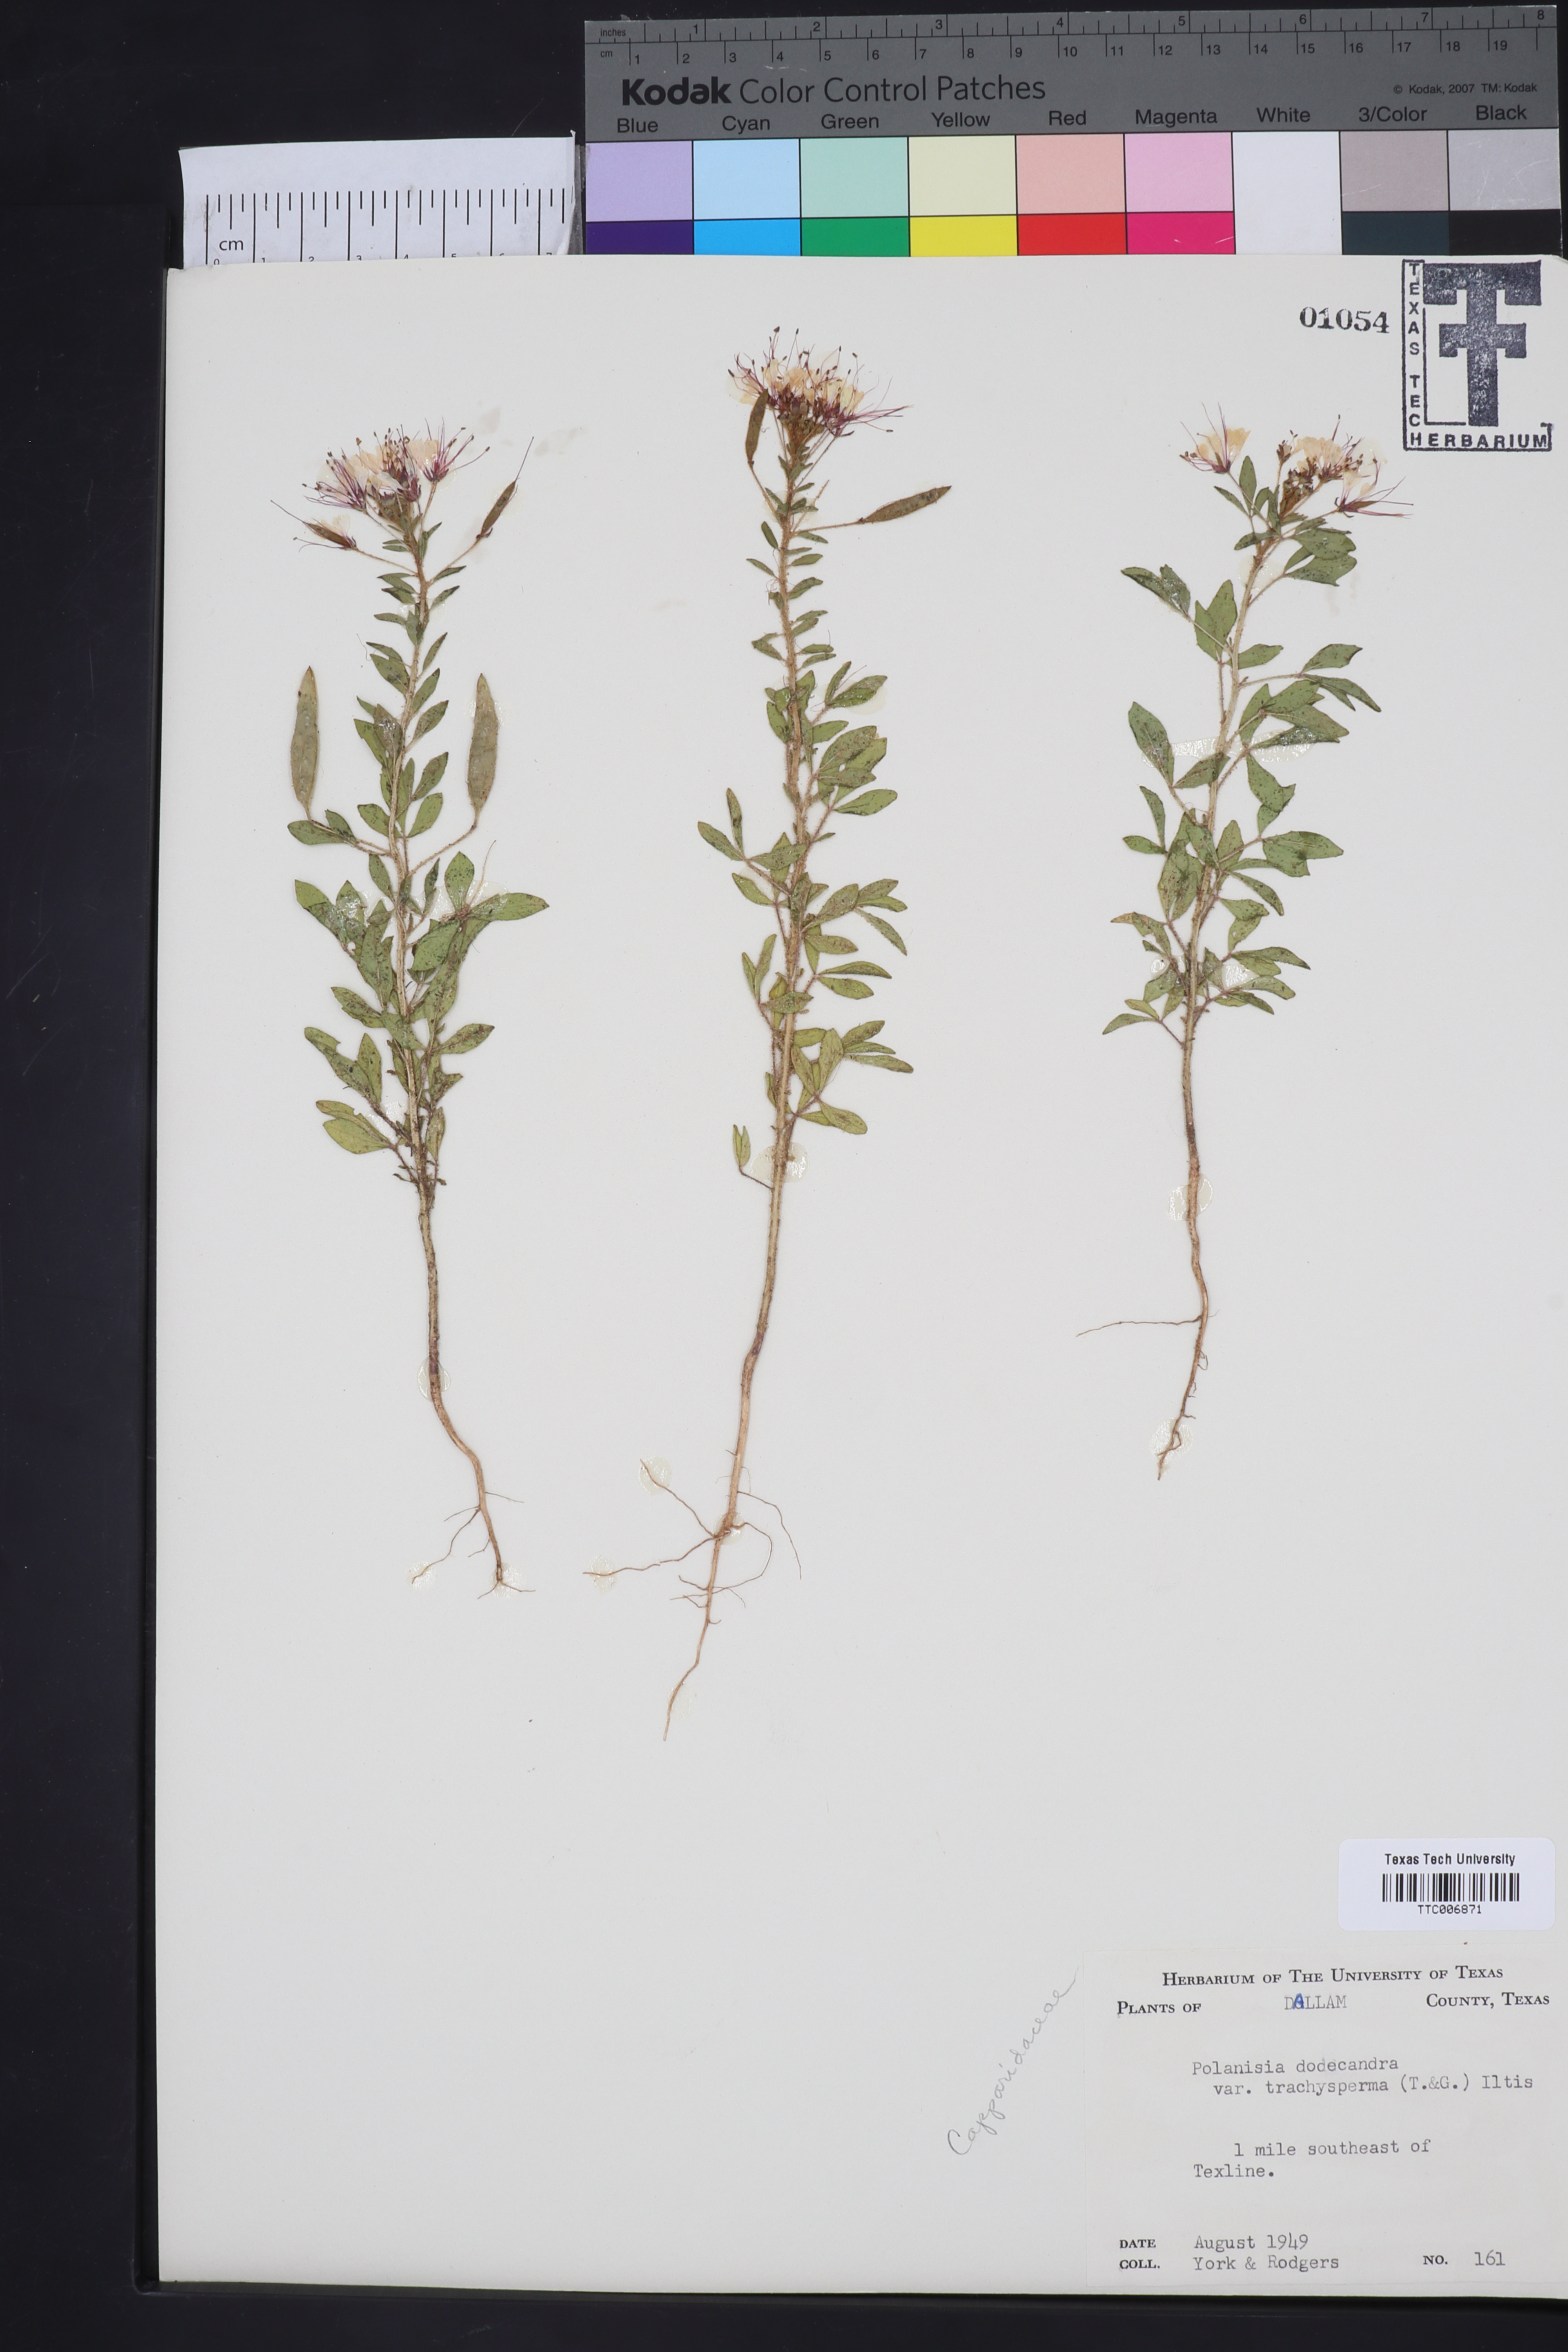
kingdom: Plantae
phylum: Tracheophyta
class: Magnoliopsida
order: Brassicales
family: Cleomaceae
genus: Polanisia
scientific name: Polanisia trachysperma
